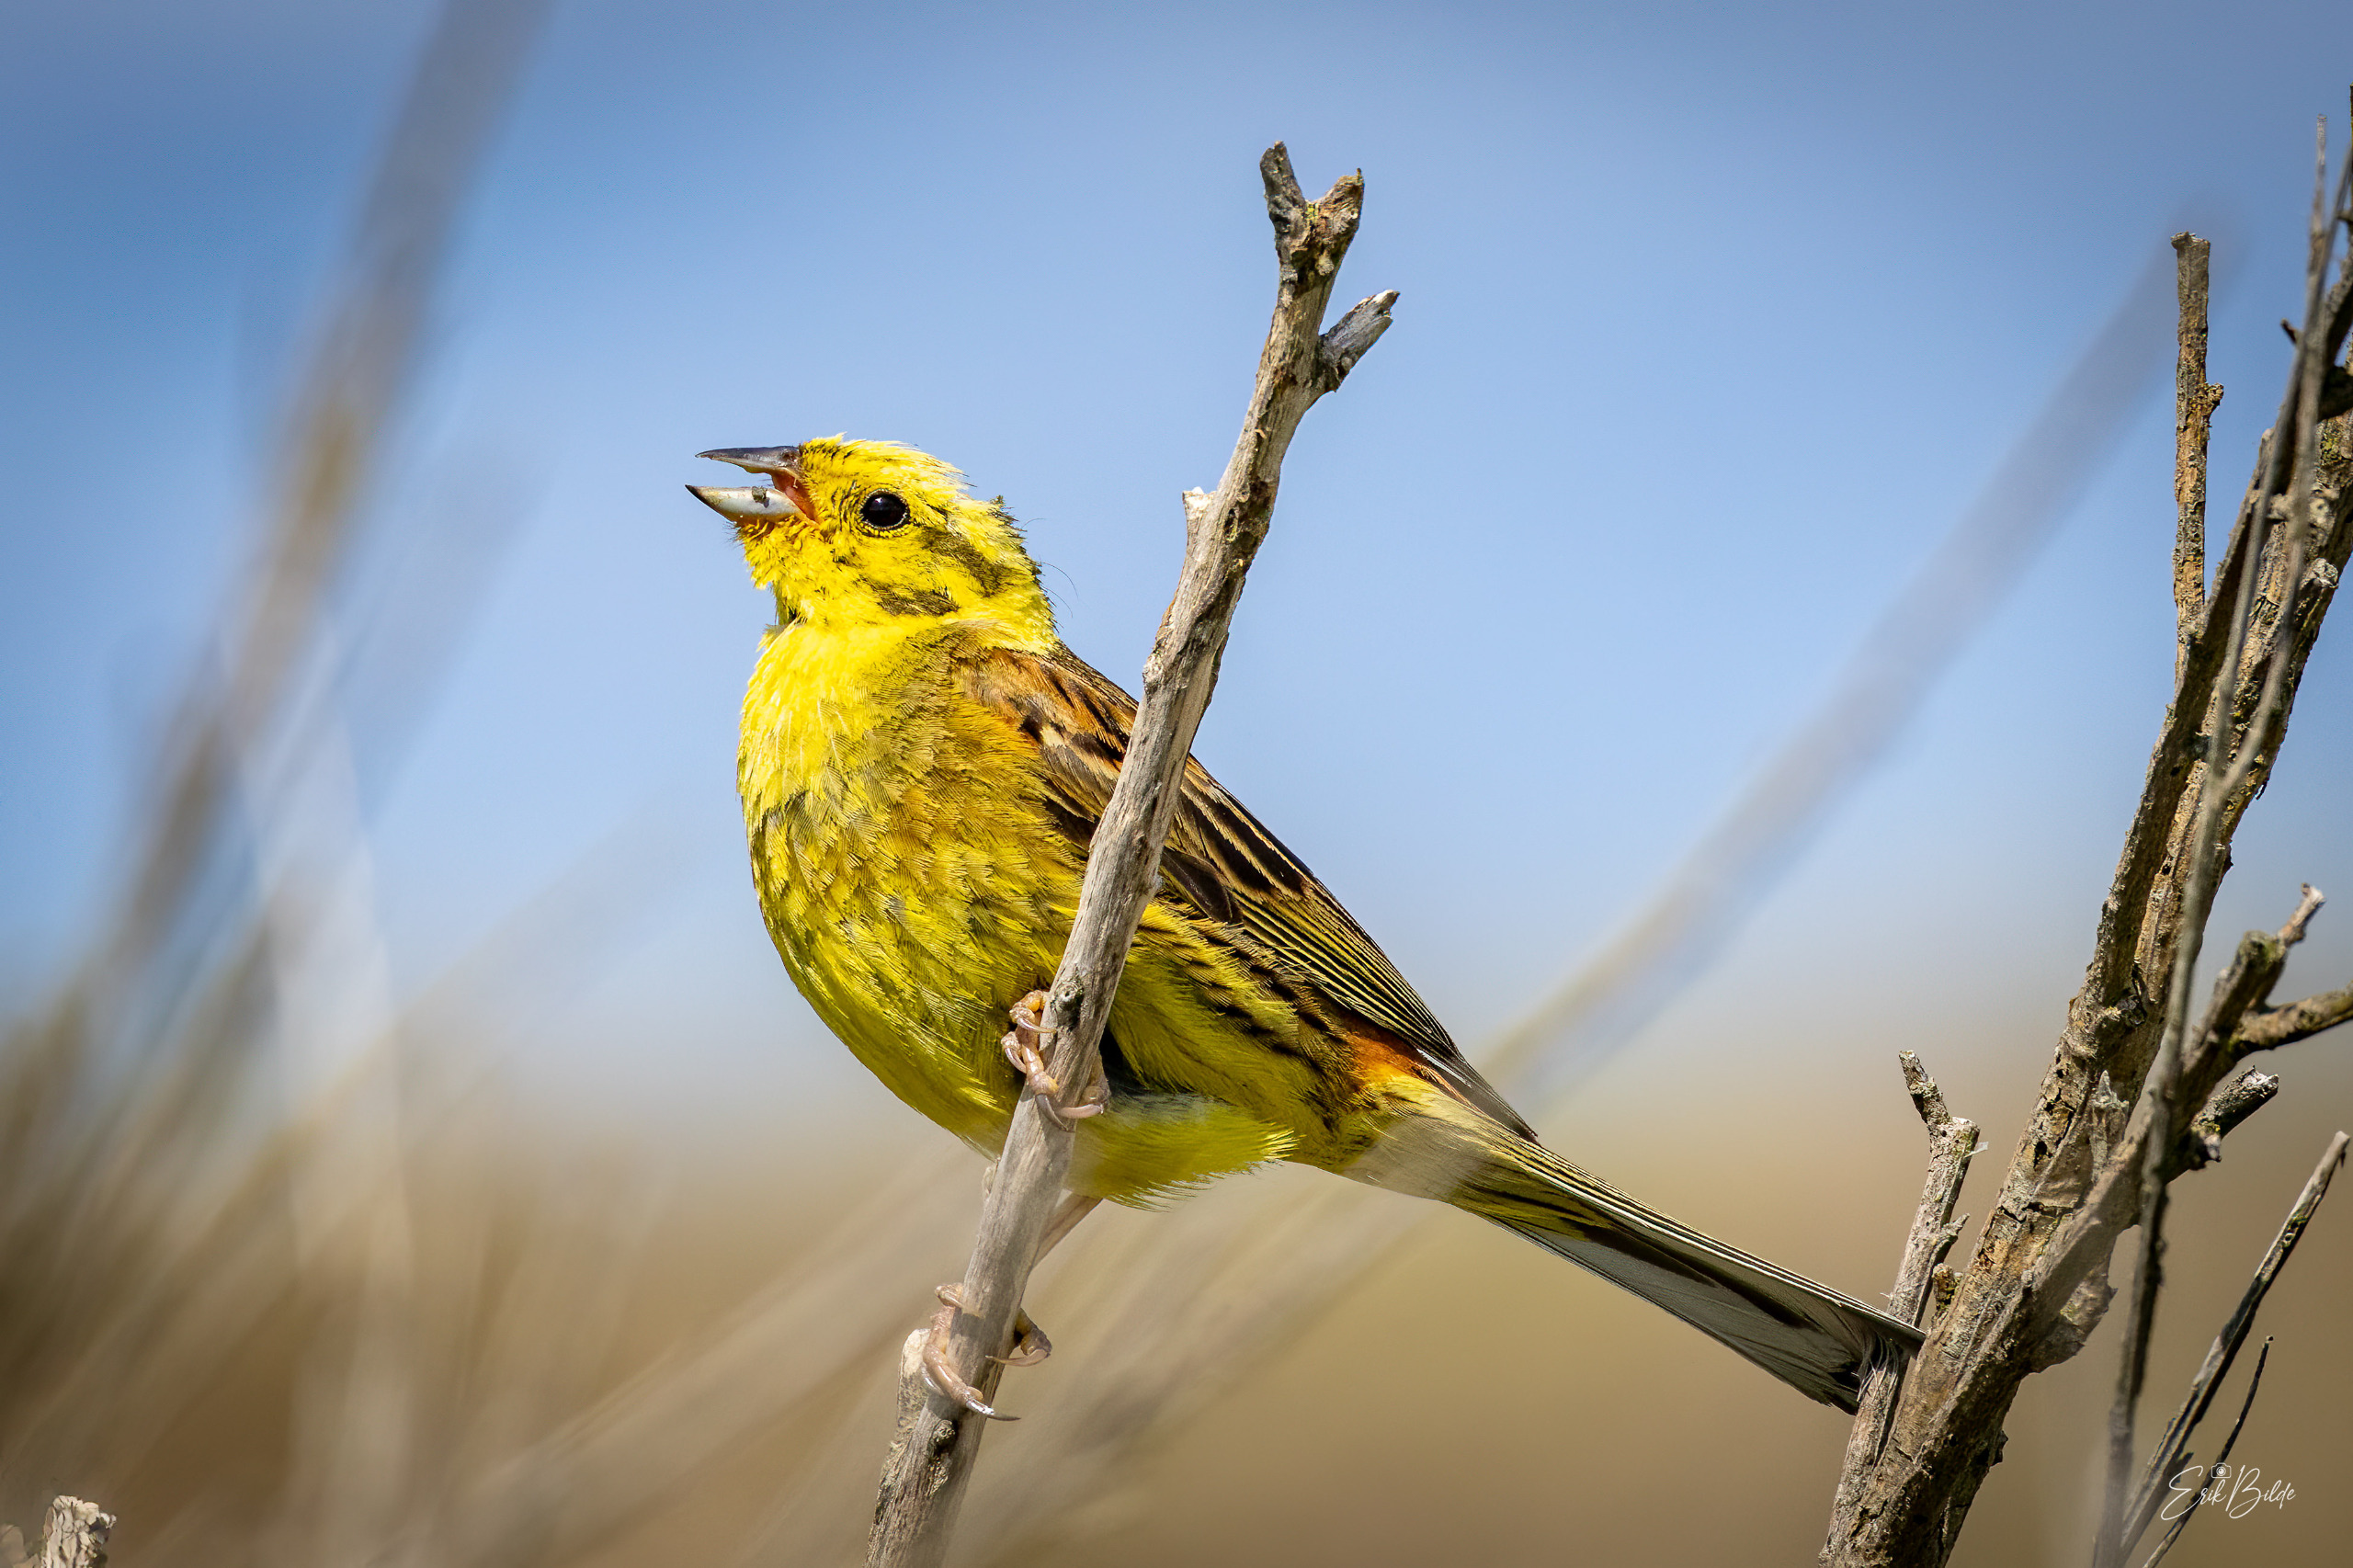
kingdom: Animalia
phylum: Chordata
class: Aves
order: Passeriformes
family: Emberizidae
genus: Emberiza
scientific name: Emberiza citrinella
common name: Gulspurv
